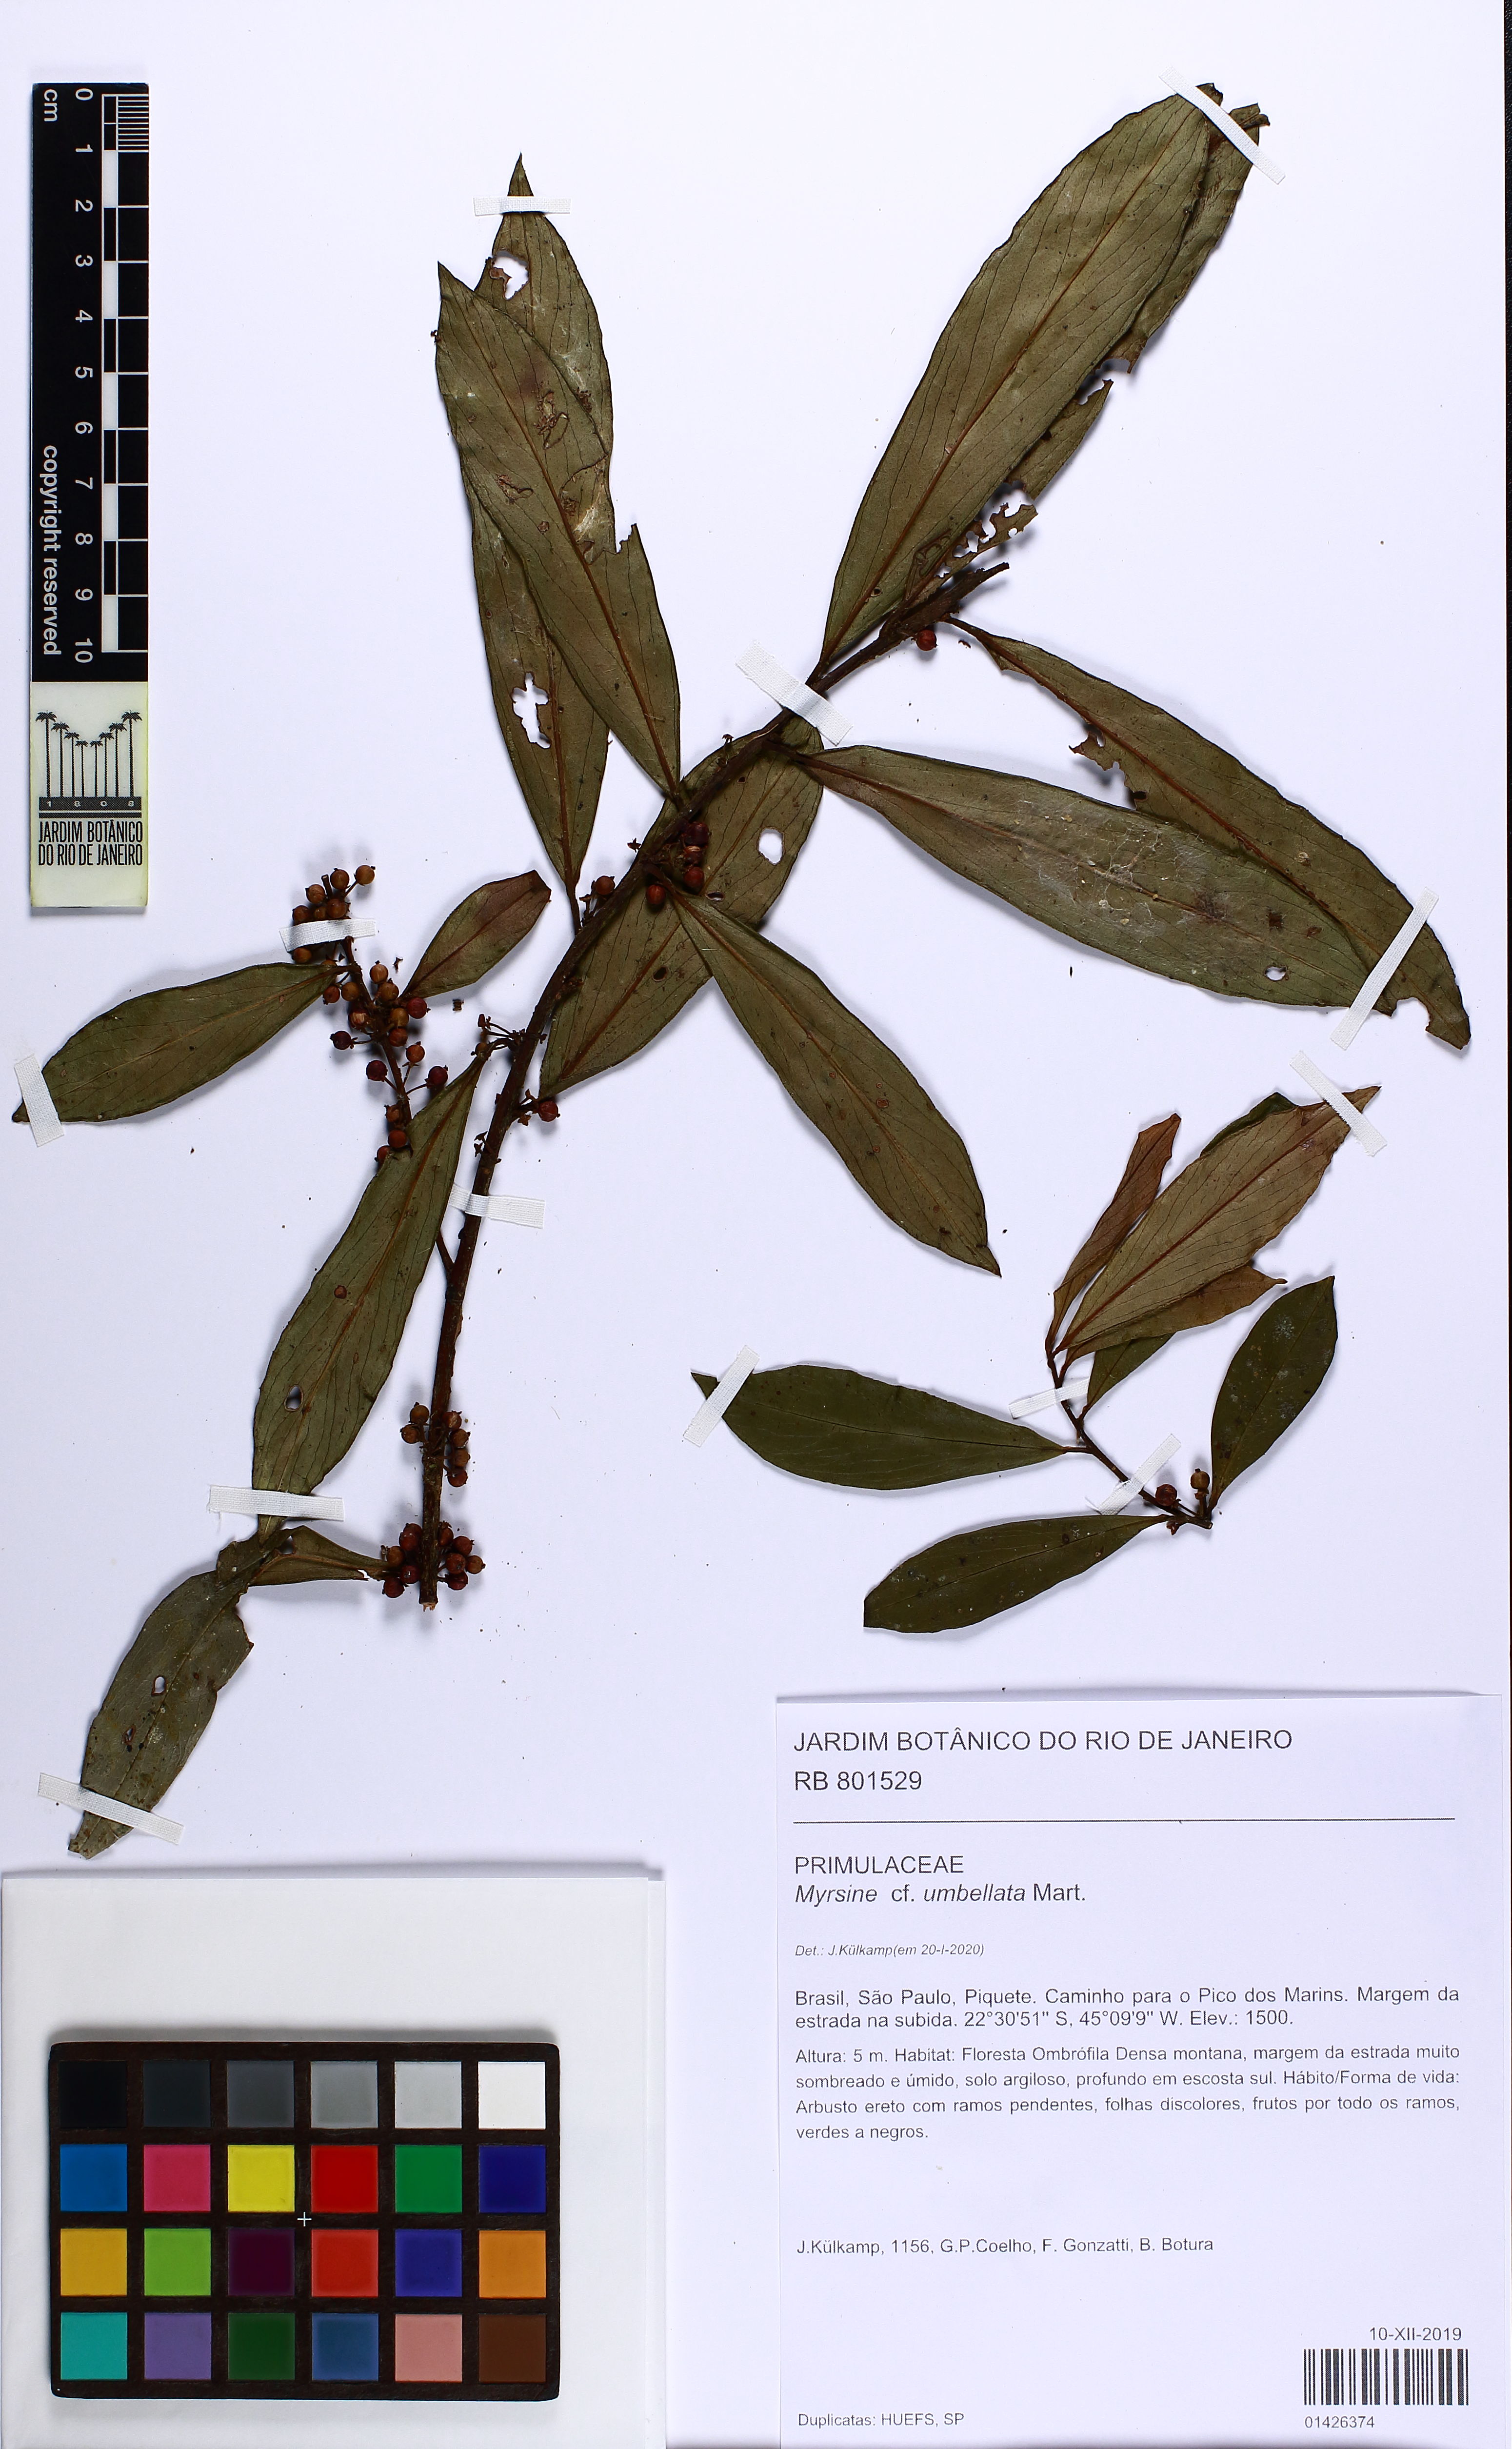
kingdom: Plantae
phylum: Tracheophyta
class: Magnoliopsida
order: Ericales
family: Primulaceae
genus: Myrsine
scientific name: Myrsine umbellata
